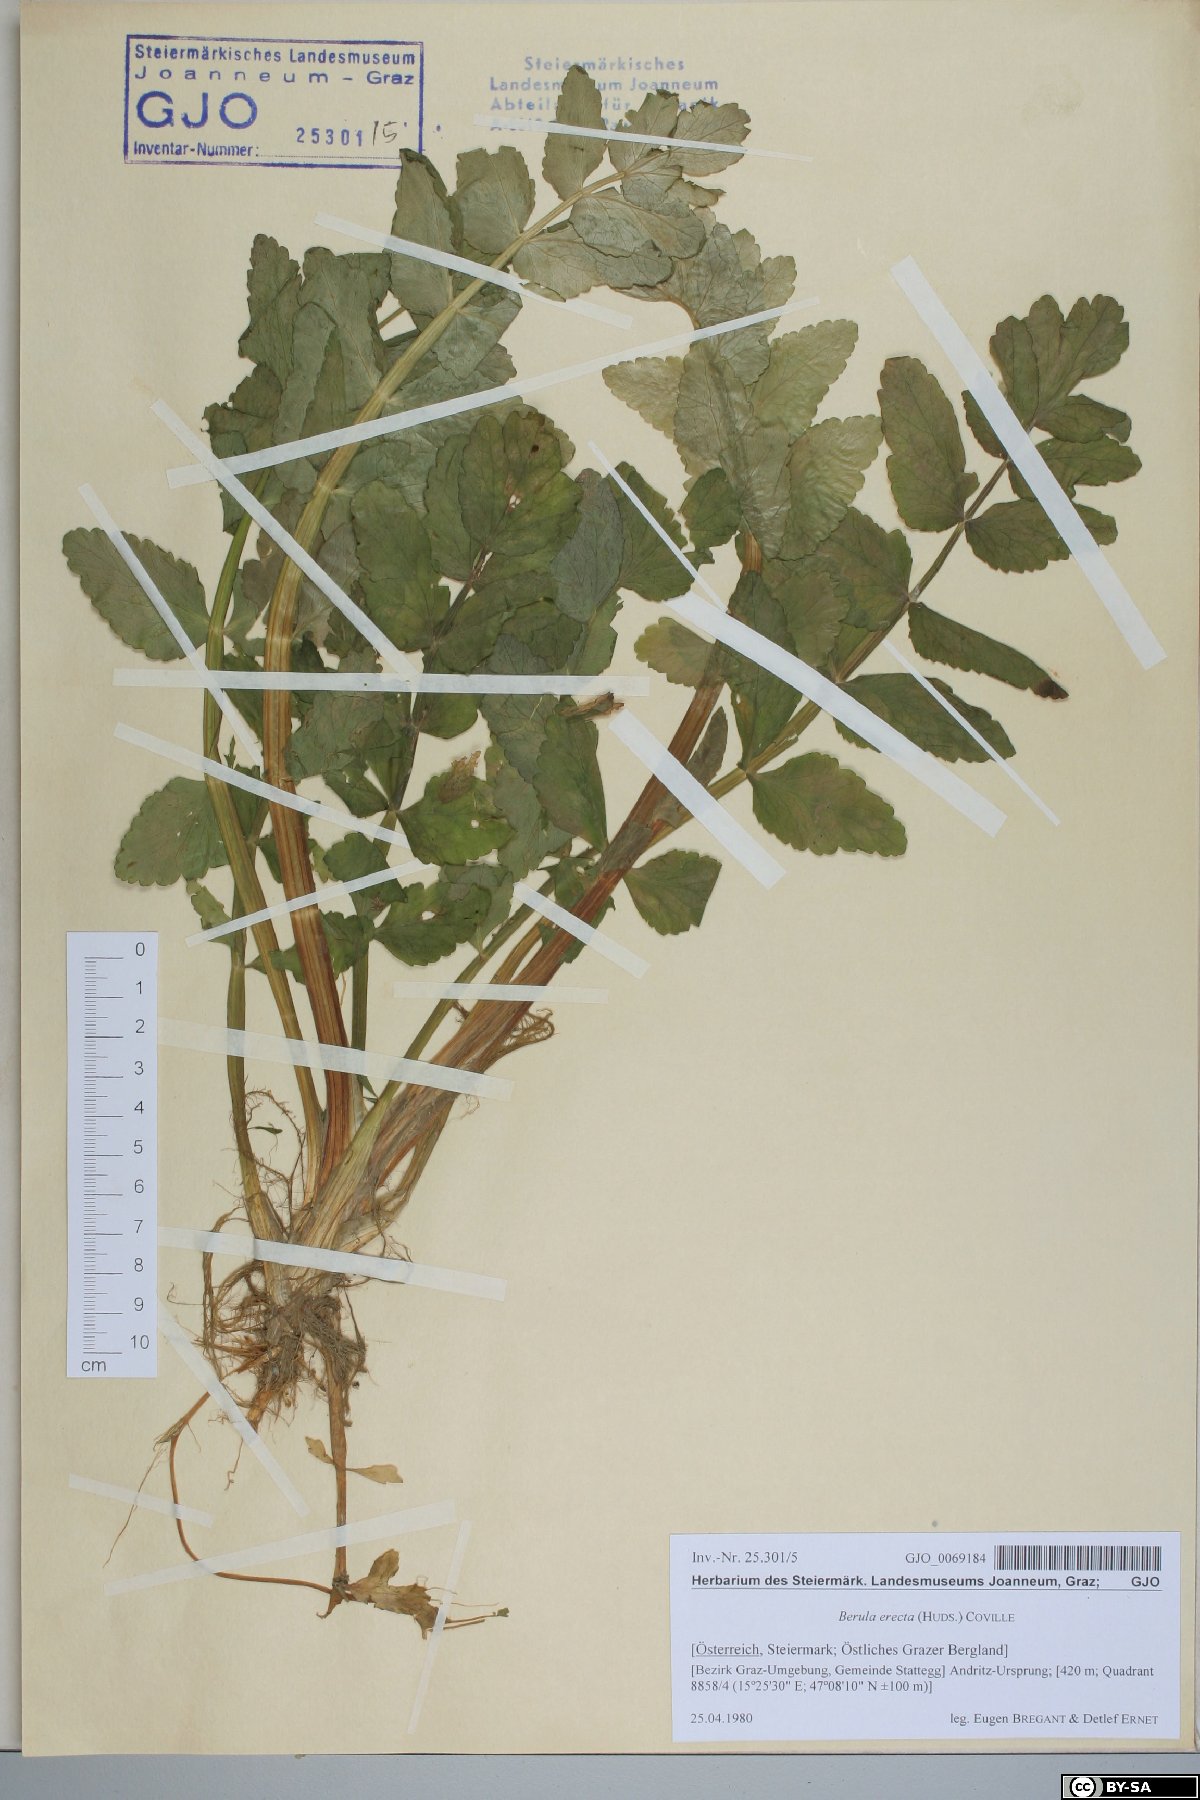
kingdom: Plantae
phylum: Tracheophyta
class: Magnoliopsida
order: Apiales
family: Apiaceae
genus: Berula
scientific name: Berula erecta
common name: Lesser water-parsnip
